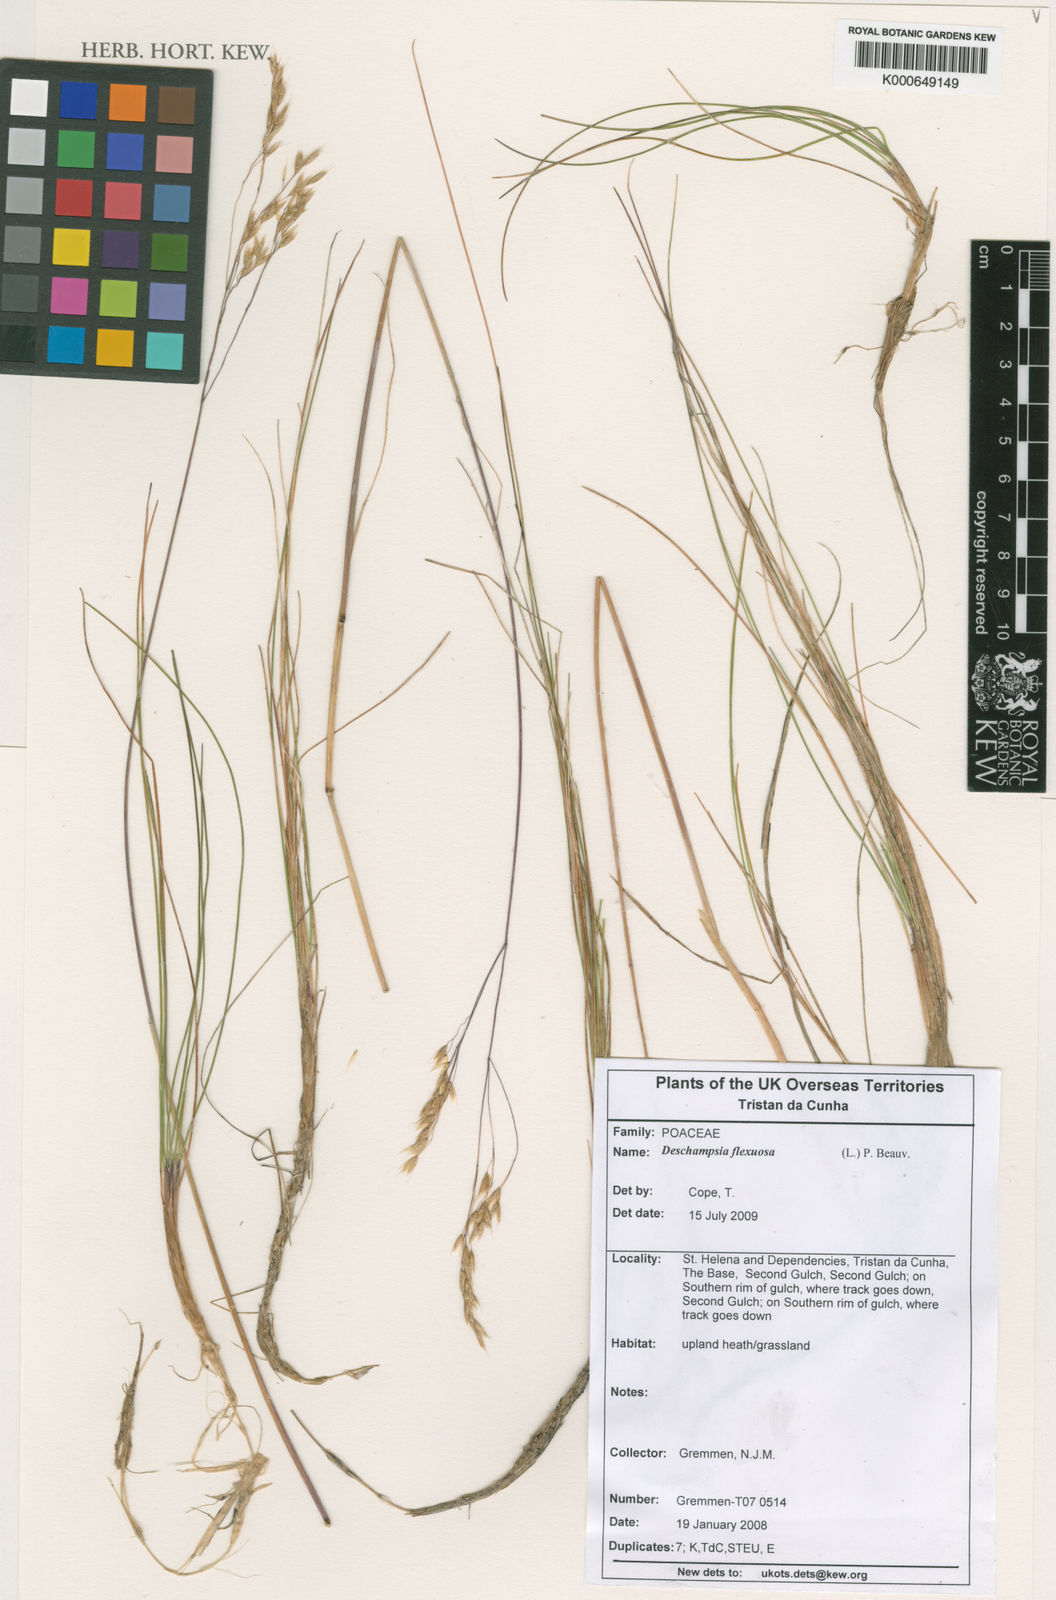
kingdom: Plantae
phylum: Tracheophyta
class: Liliopsida
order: Poales
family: Poaceae
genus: Deschampsia
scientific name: Deschampsia
